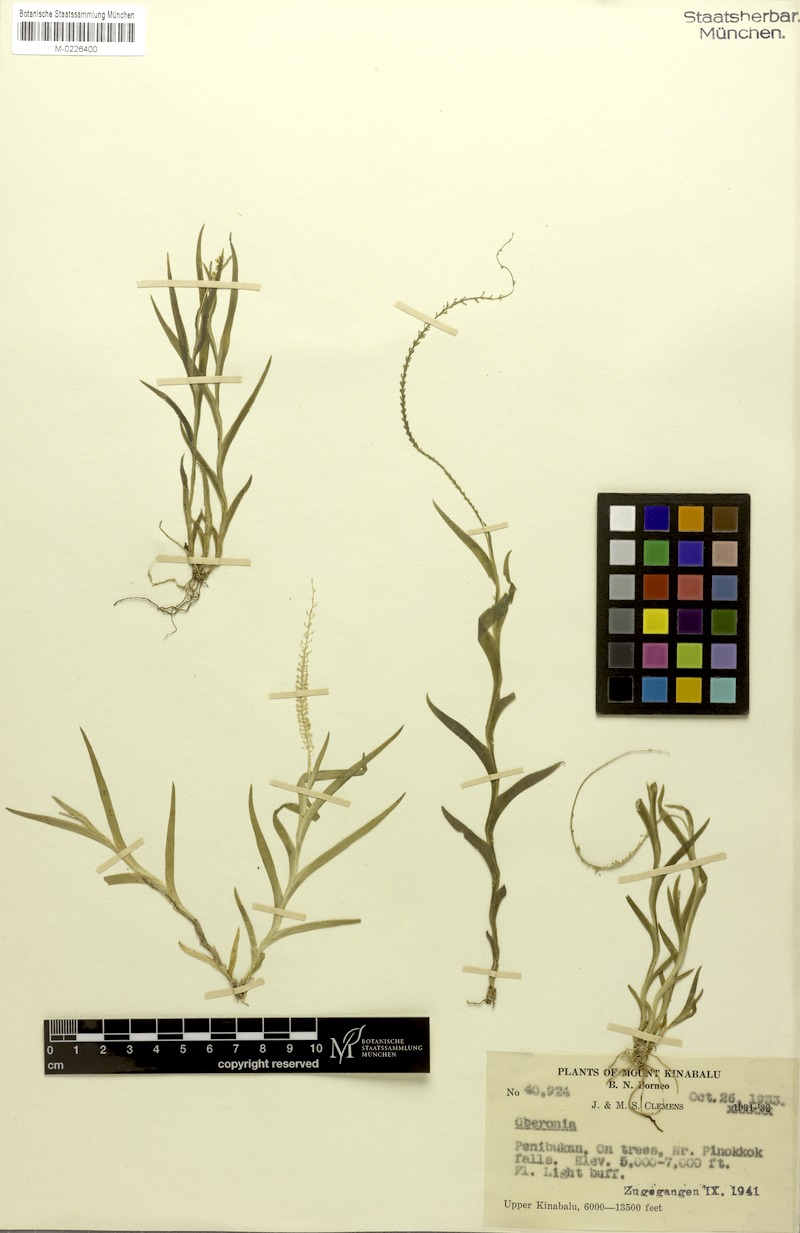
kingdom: Plantae
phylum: Tracheophyta
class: Liliopsida
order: Asparagales
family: Orchidaceae
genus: Oberonia
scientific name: Oberonia
